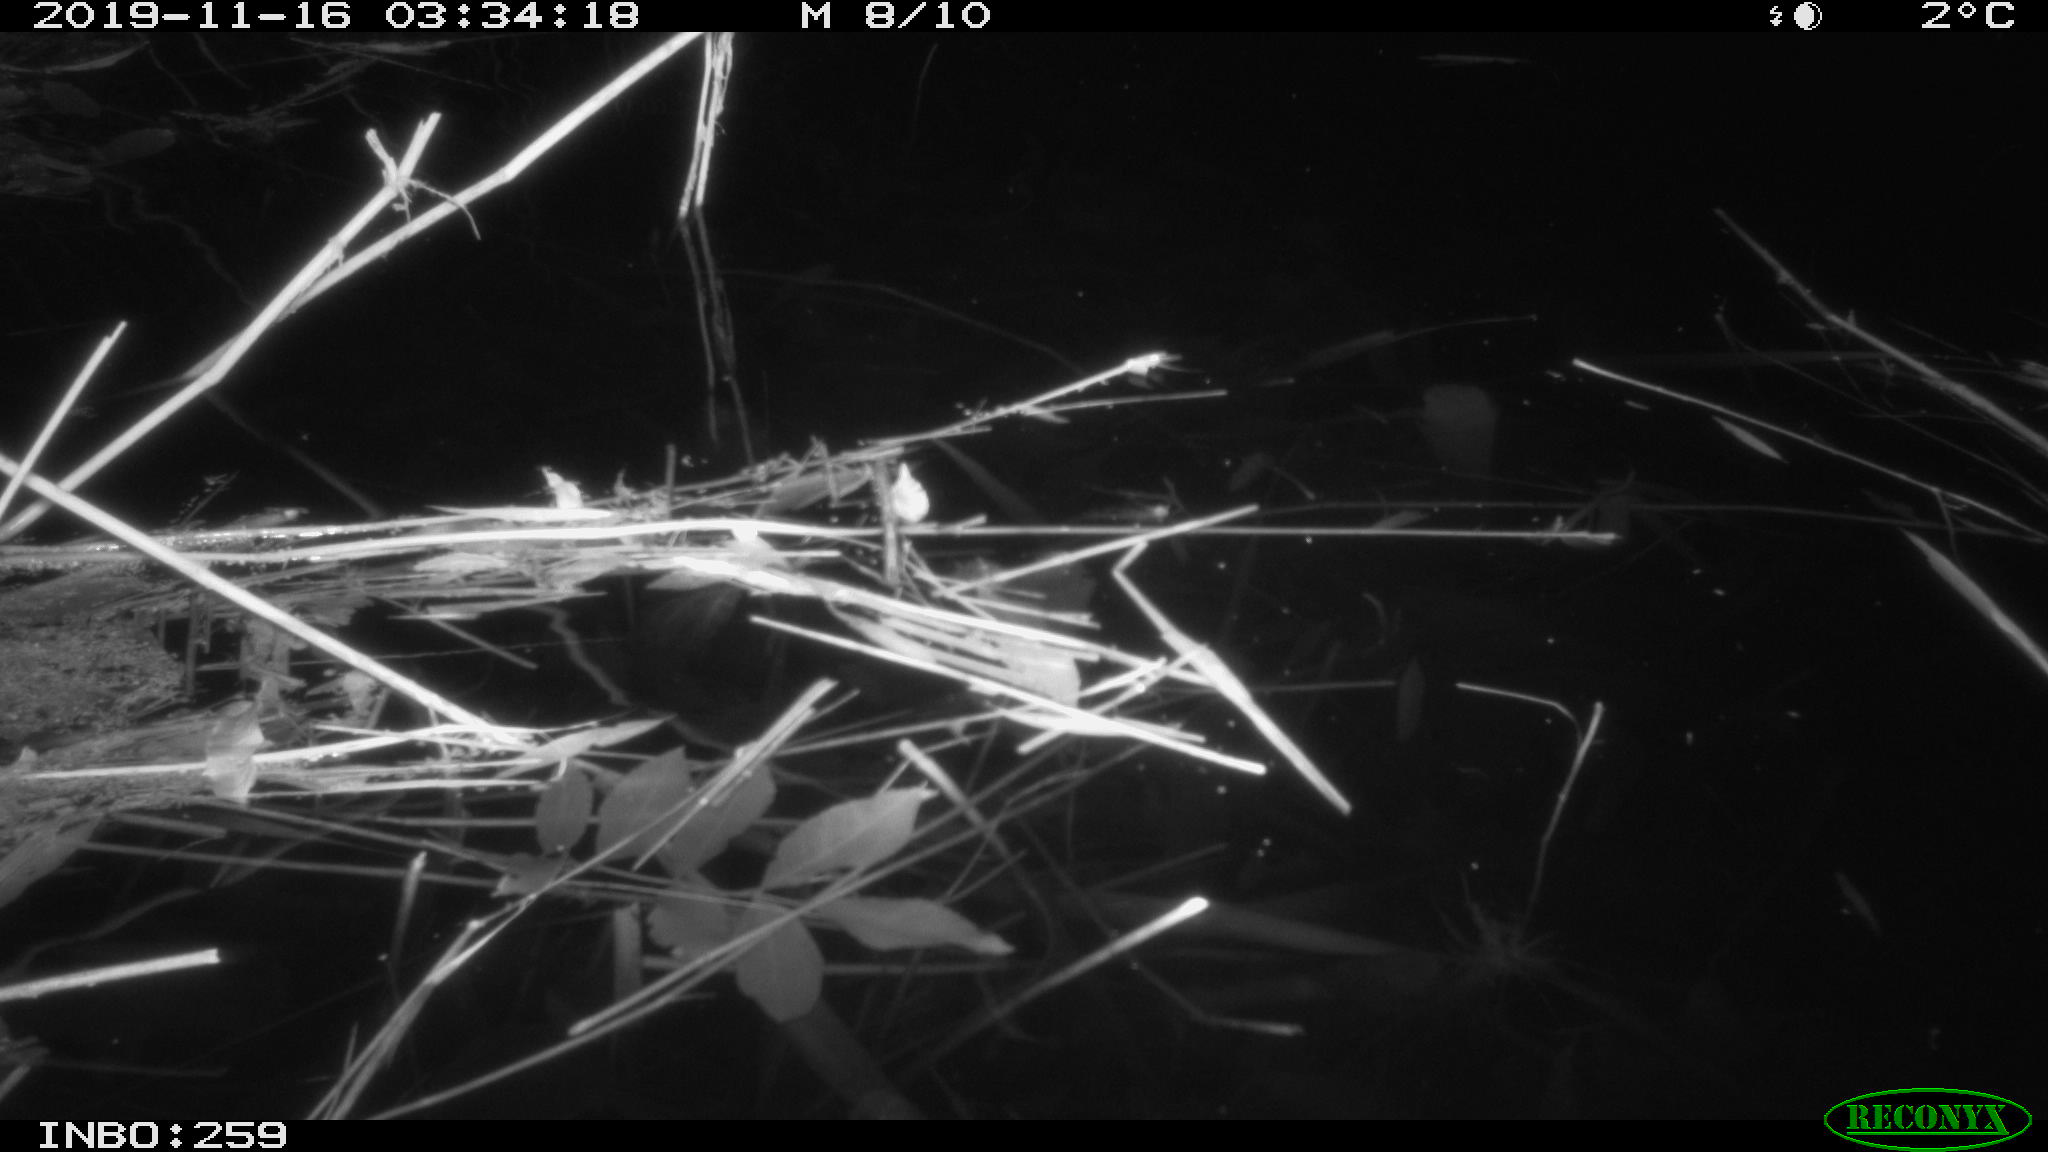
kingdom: Animalia
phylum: Chordata
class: Mammalia
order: Rodentia
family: Cricetidae
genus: Ondatra
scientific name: Ondatra zibethicus
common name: Muskrat
